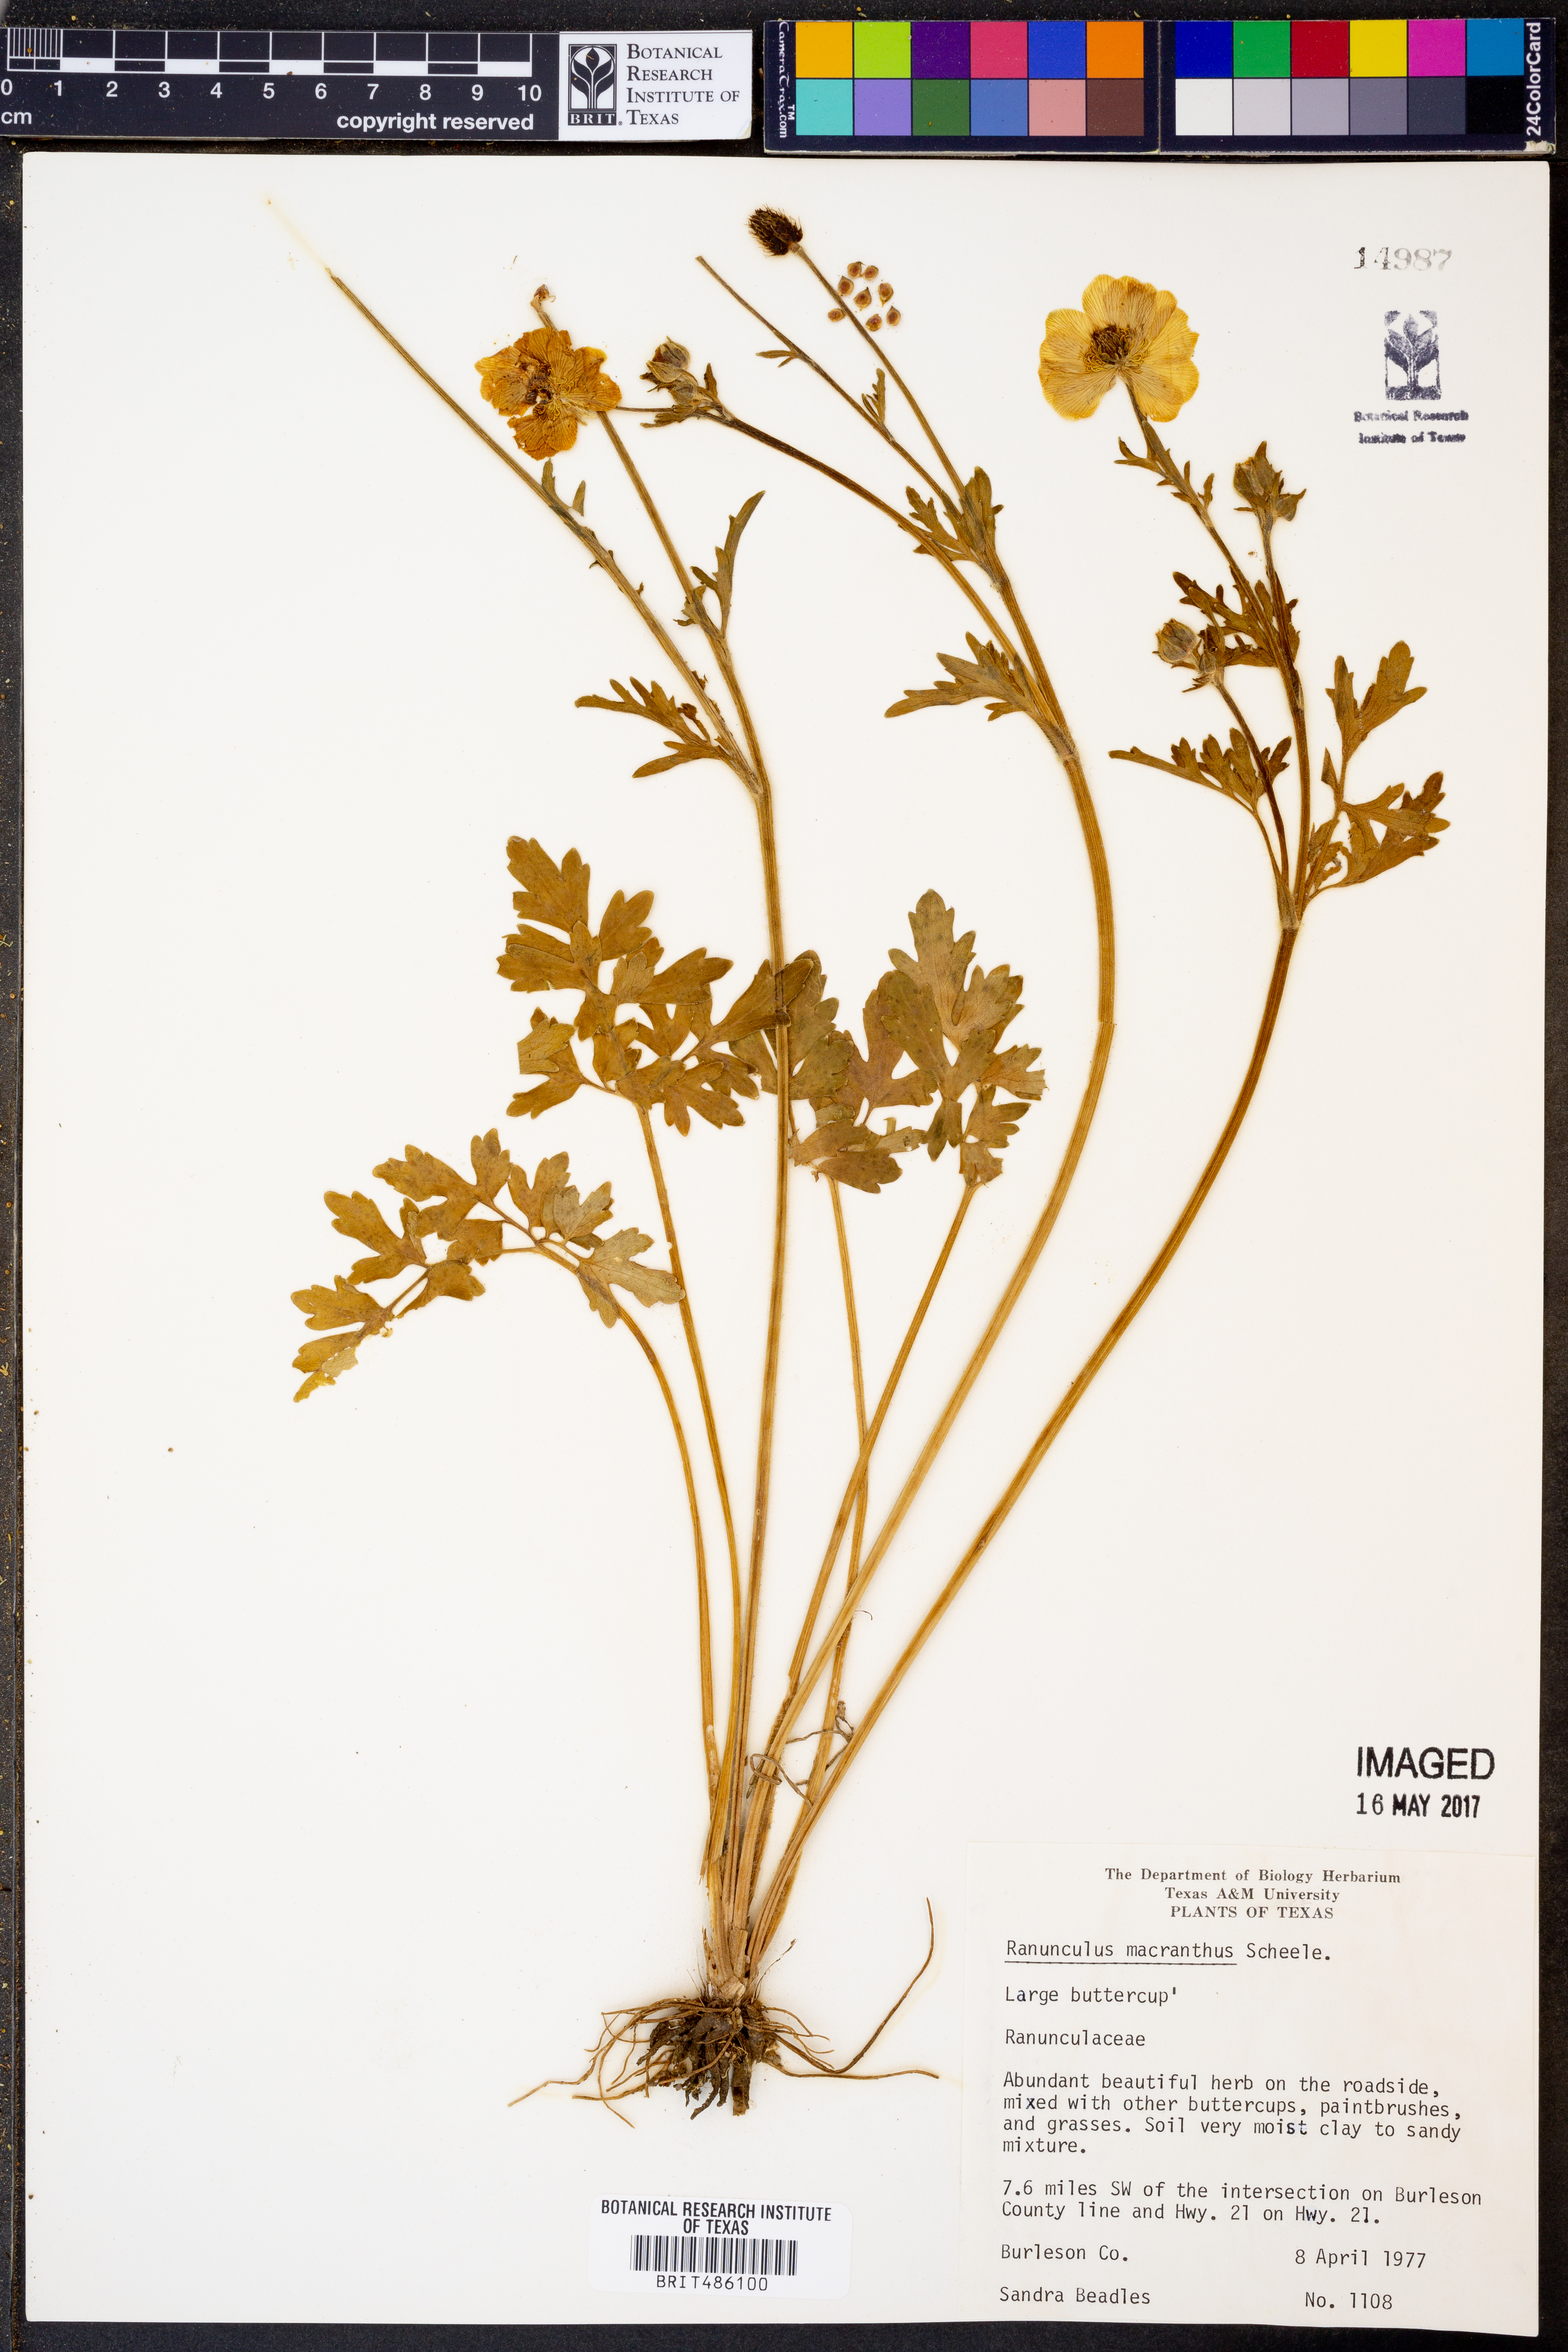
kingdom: Plantae
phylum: Tracheophyta
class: Magnoliopsida
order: Ranunculales
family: Ranunculaceae
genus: Ranunculus
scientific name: Ranunculus macranthus
